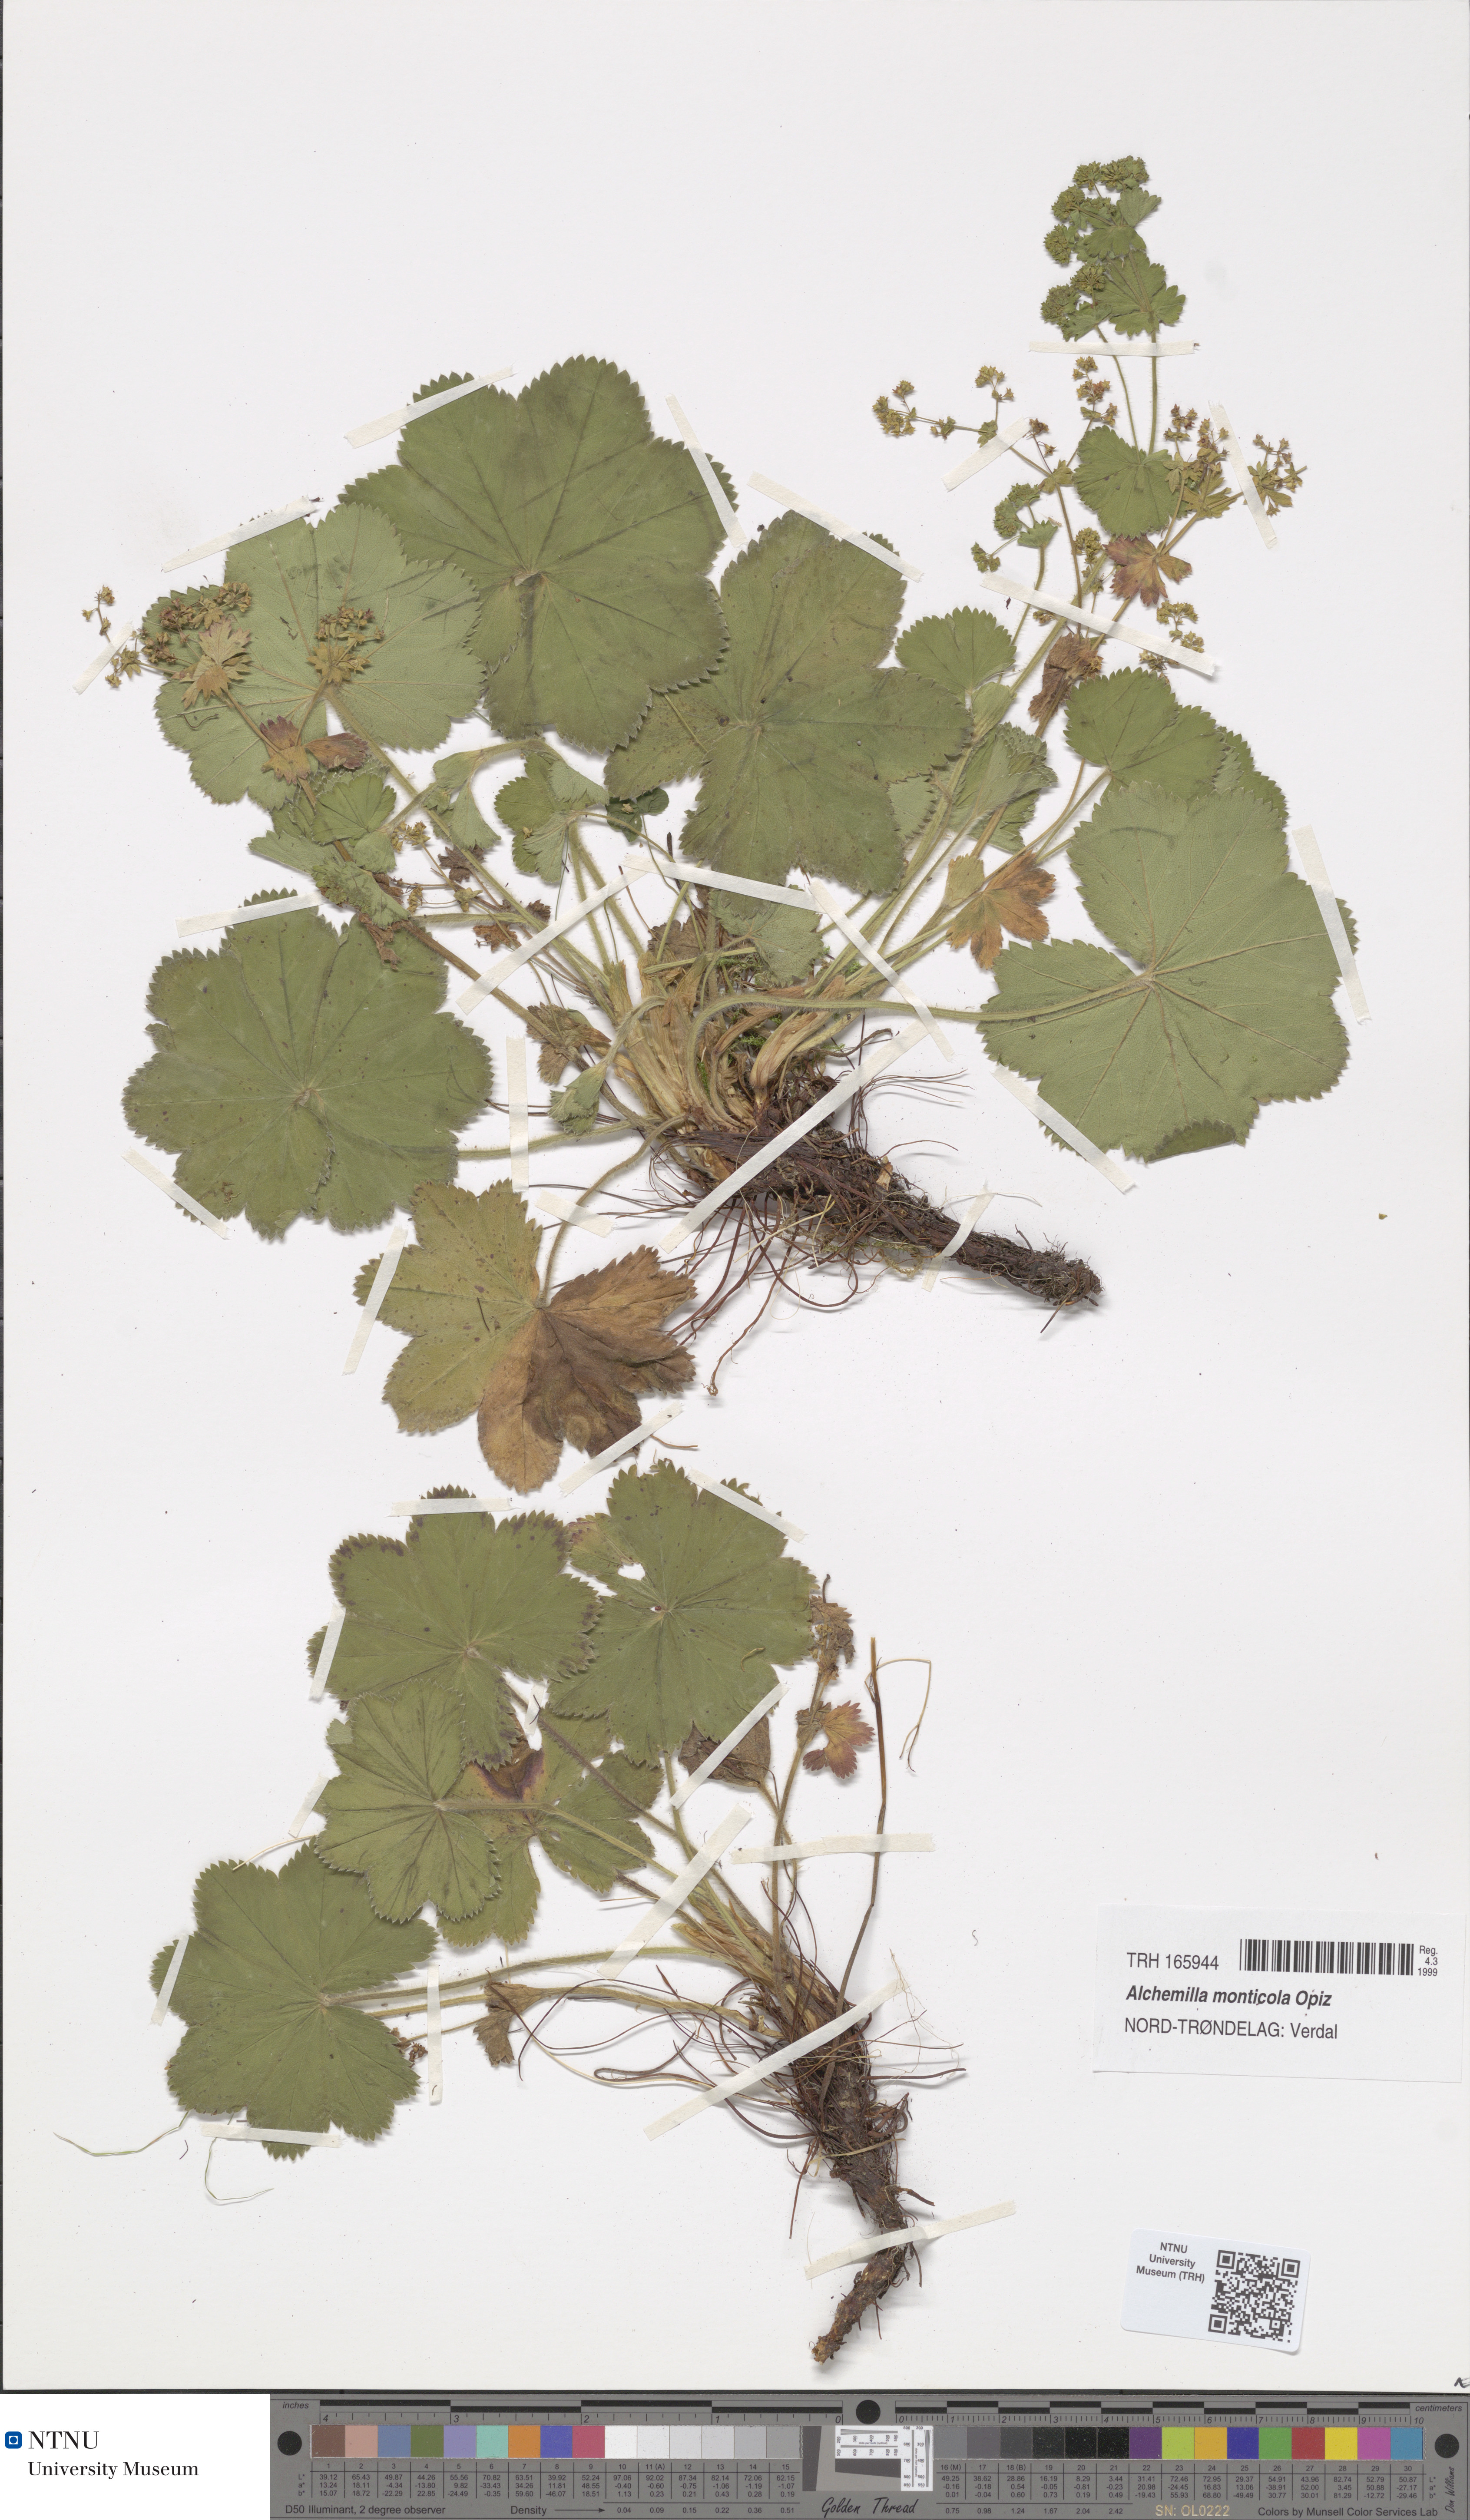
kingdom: Plantae
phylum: Tracheophyta
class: Magnoliopsida
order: Rosales
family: Rosaceae
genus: Alchemilla
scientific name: Alchemilla monticola
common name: Hairy lady's mantle
